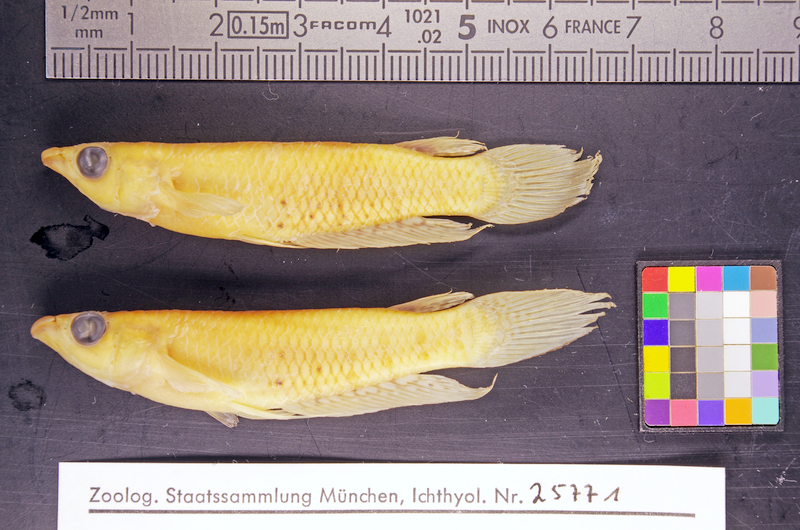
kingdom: Animalia
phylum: Chordata
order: Cyprinodontiformes
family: Aplocheilidae
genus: Aplocheilus
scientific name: Aplocheilus lineatus
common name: Striped panchax
